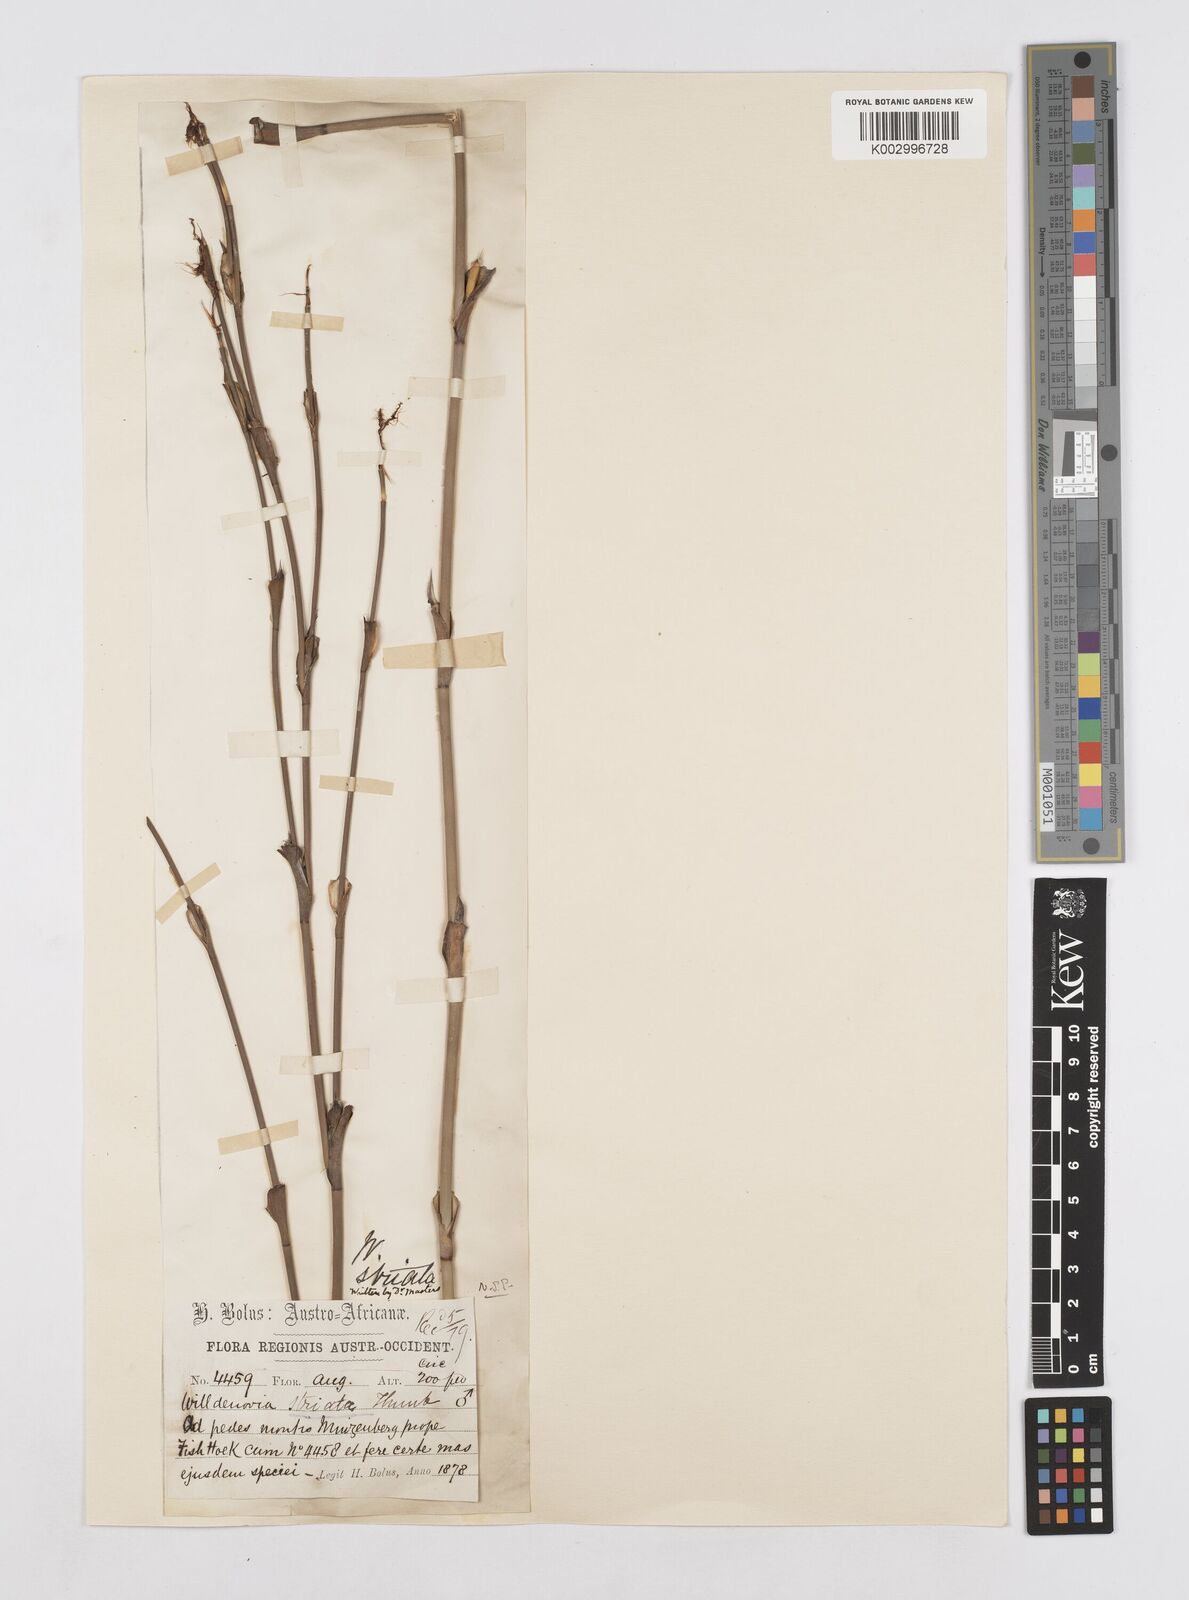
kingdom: Plantae
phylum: Tracheophyta
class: Liliopsida
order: Poales
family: Restionaceae
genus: Willdenowia
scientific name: Willdenowia incurvata
